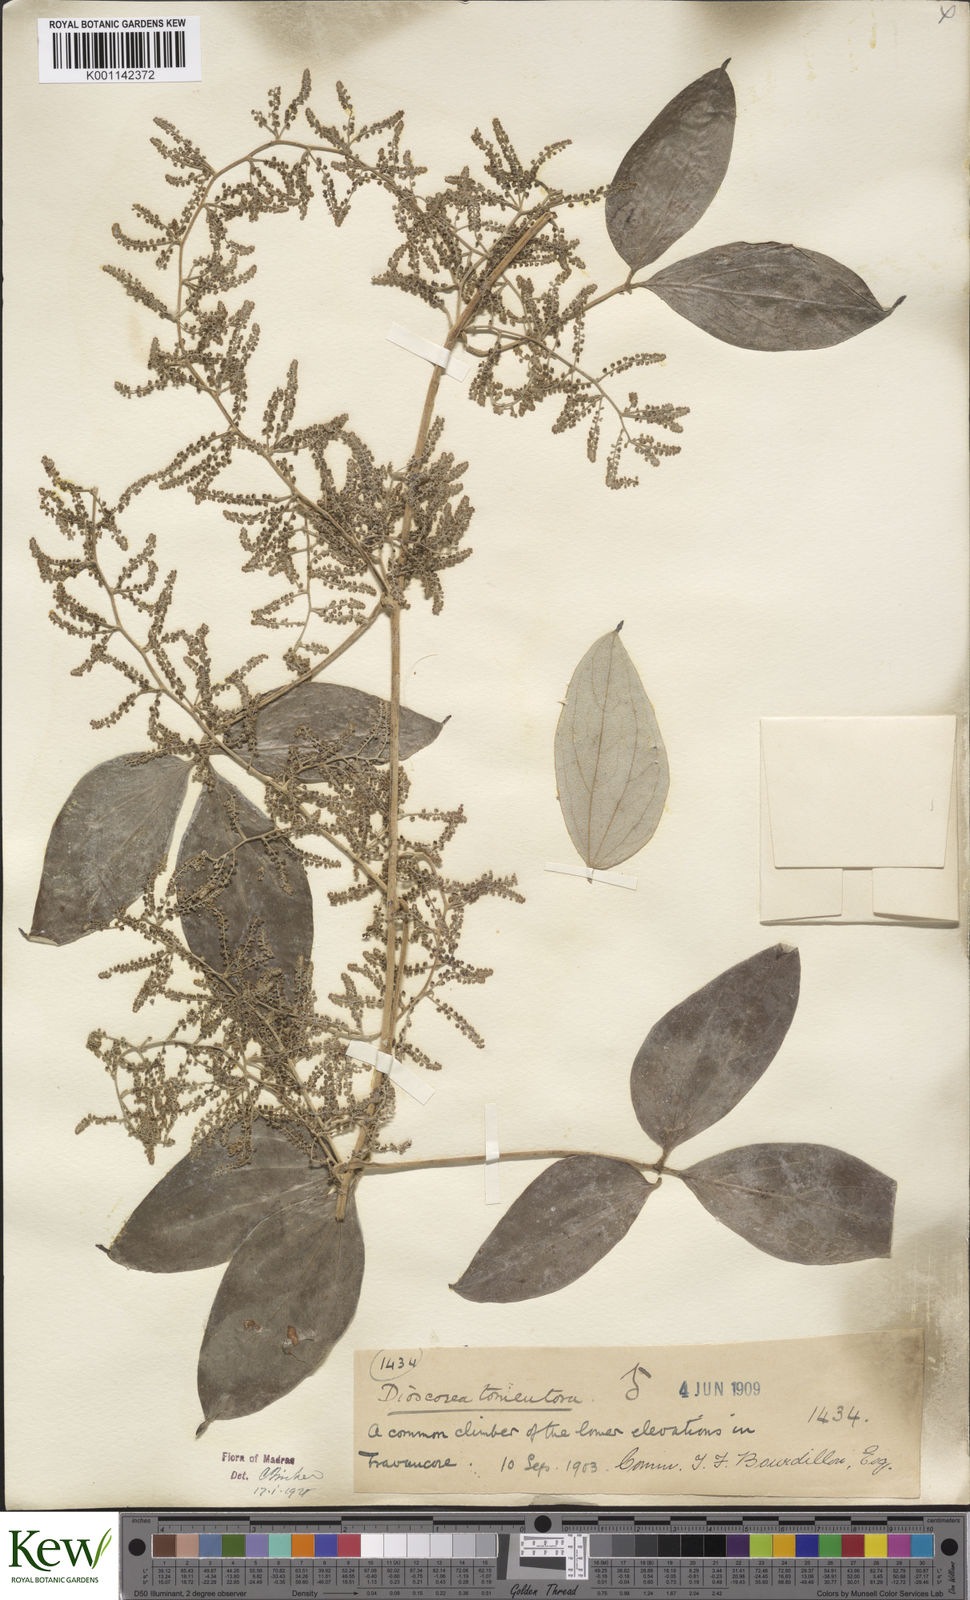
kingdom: Plantae
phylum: Tracheophyta
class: Liliopsida
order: Dioscoreales
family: Dioscoreaceae
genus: Dioscorea
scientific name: Dioscorea
